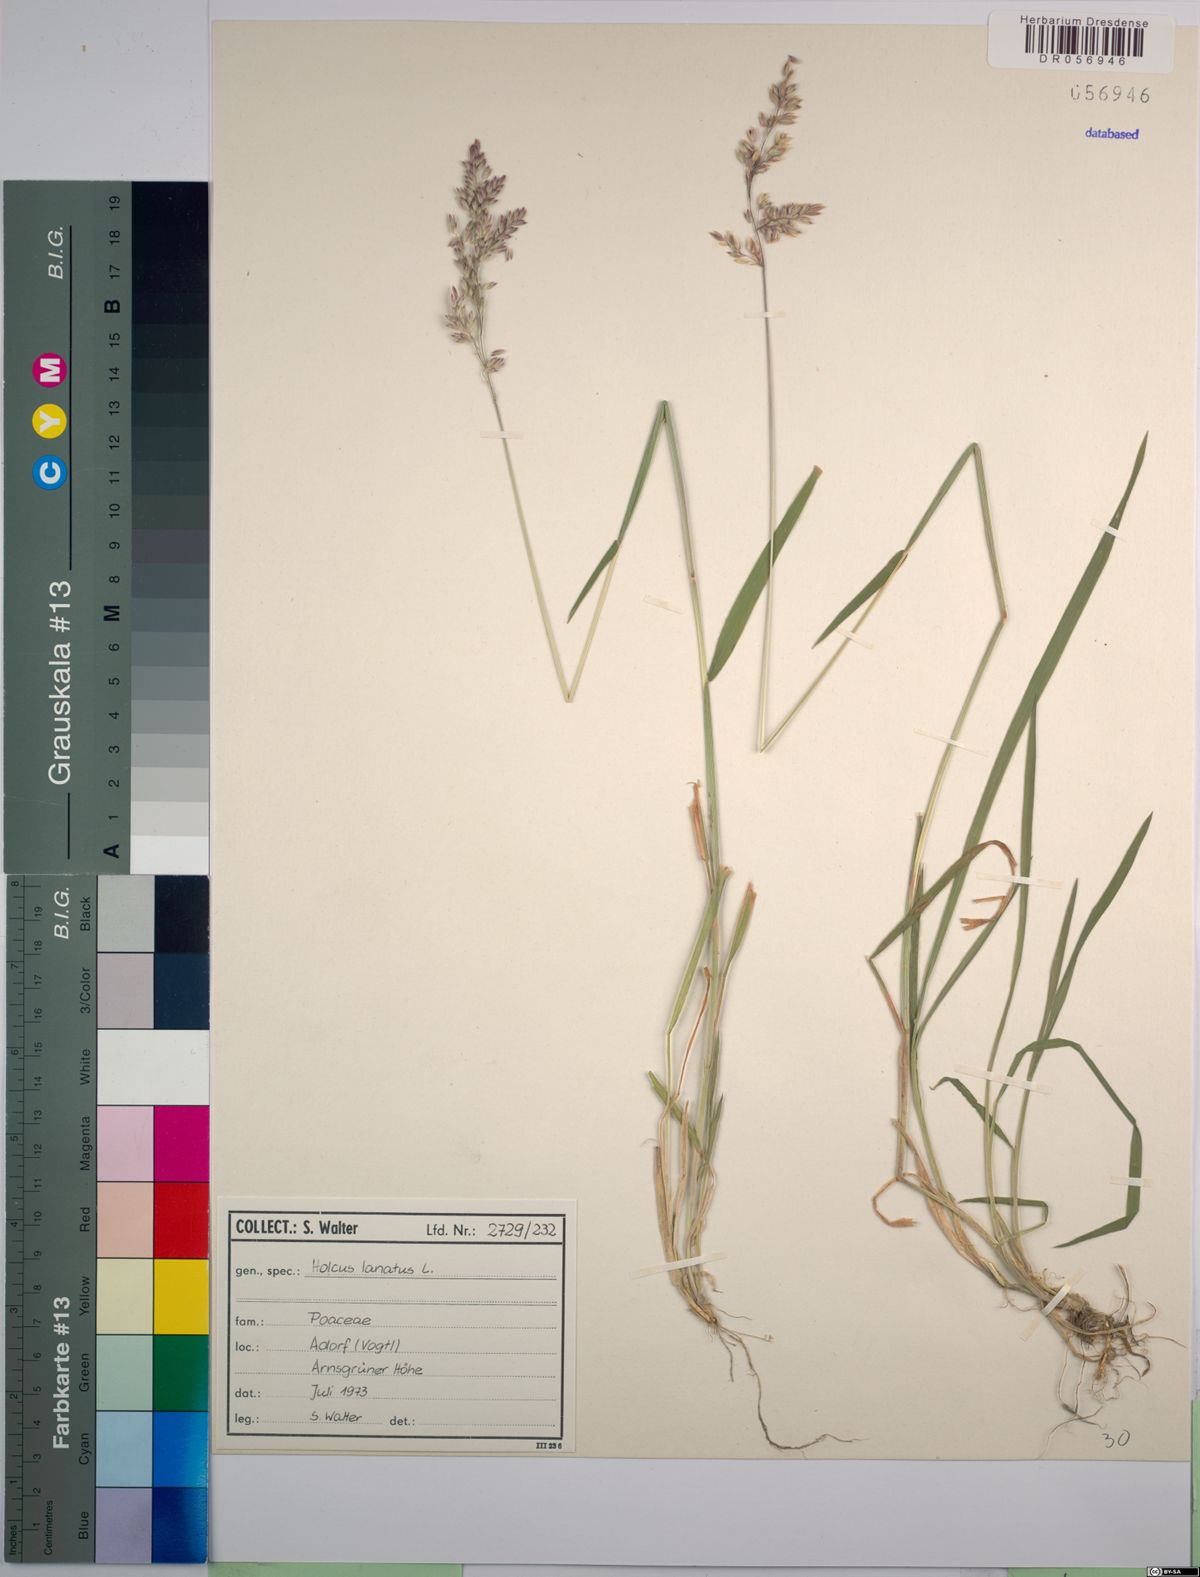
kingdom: Plantae
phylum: Tracheophyta
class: Liliopsida
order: Poales
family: Poaceae
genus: Holcus
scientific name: Holcus lanatus
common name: Yorkshire-fog
